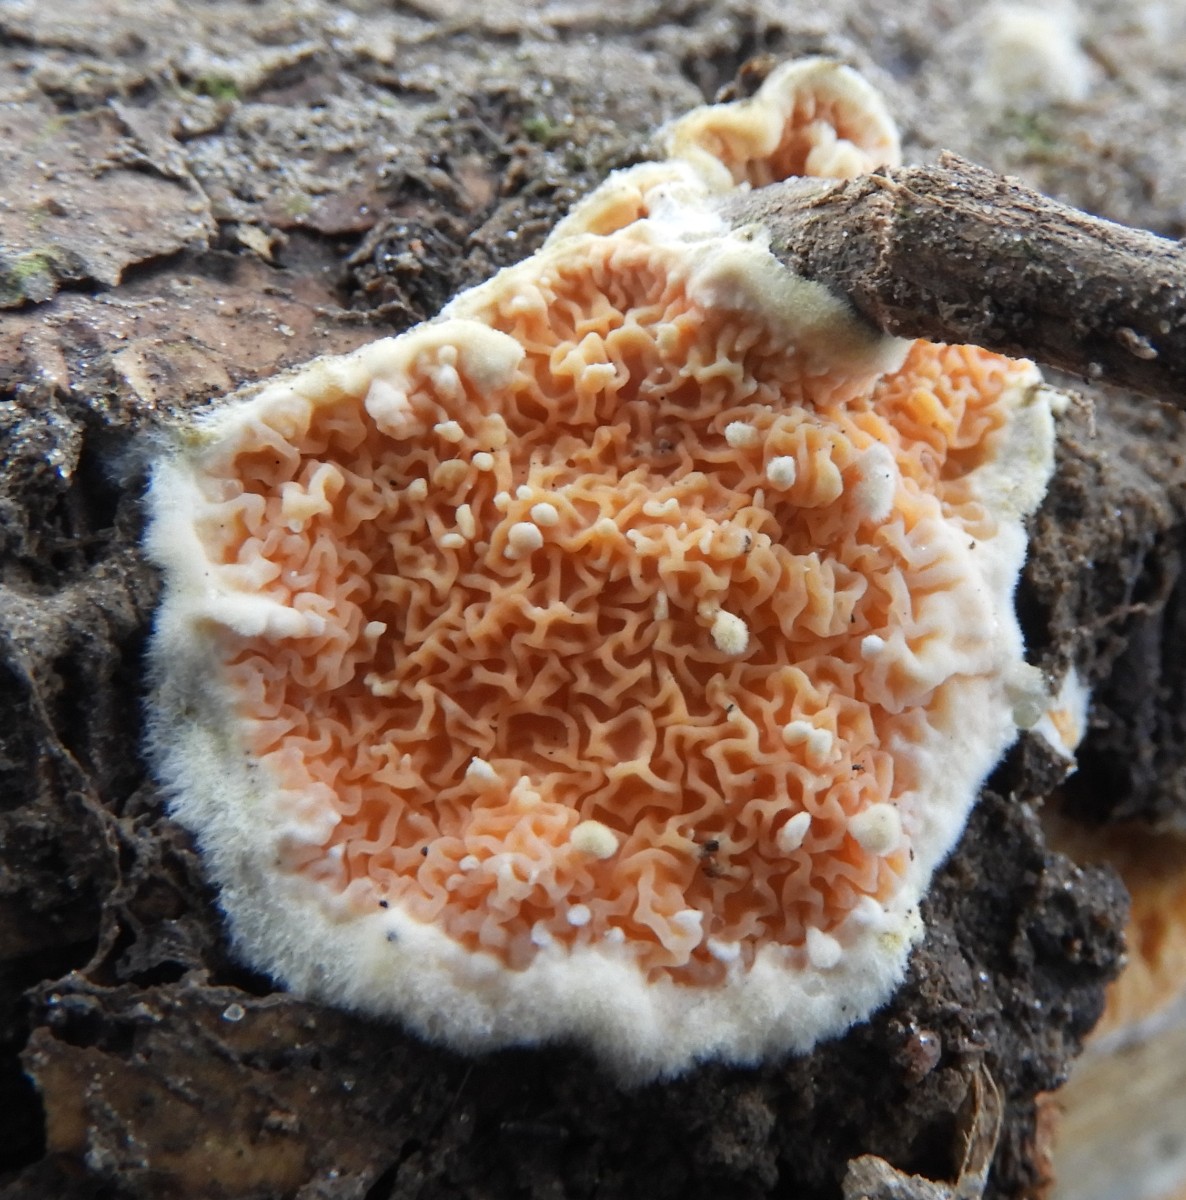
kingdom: Fungi
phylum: Basidiomycota
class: Agaricomycetes
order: Boletales
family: Hygrophoropsidaceae
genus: Leucogyrophana
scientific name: Leucogyrophana
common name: hussvamp
